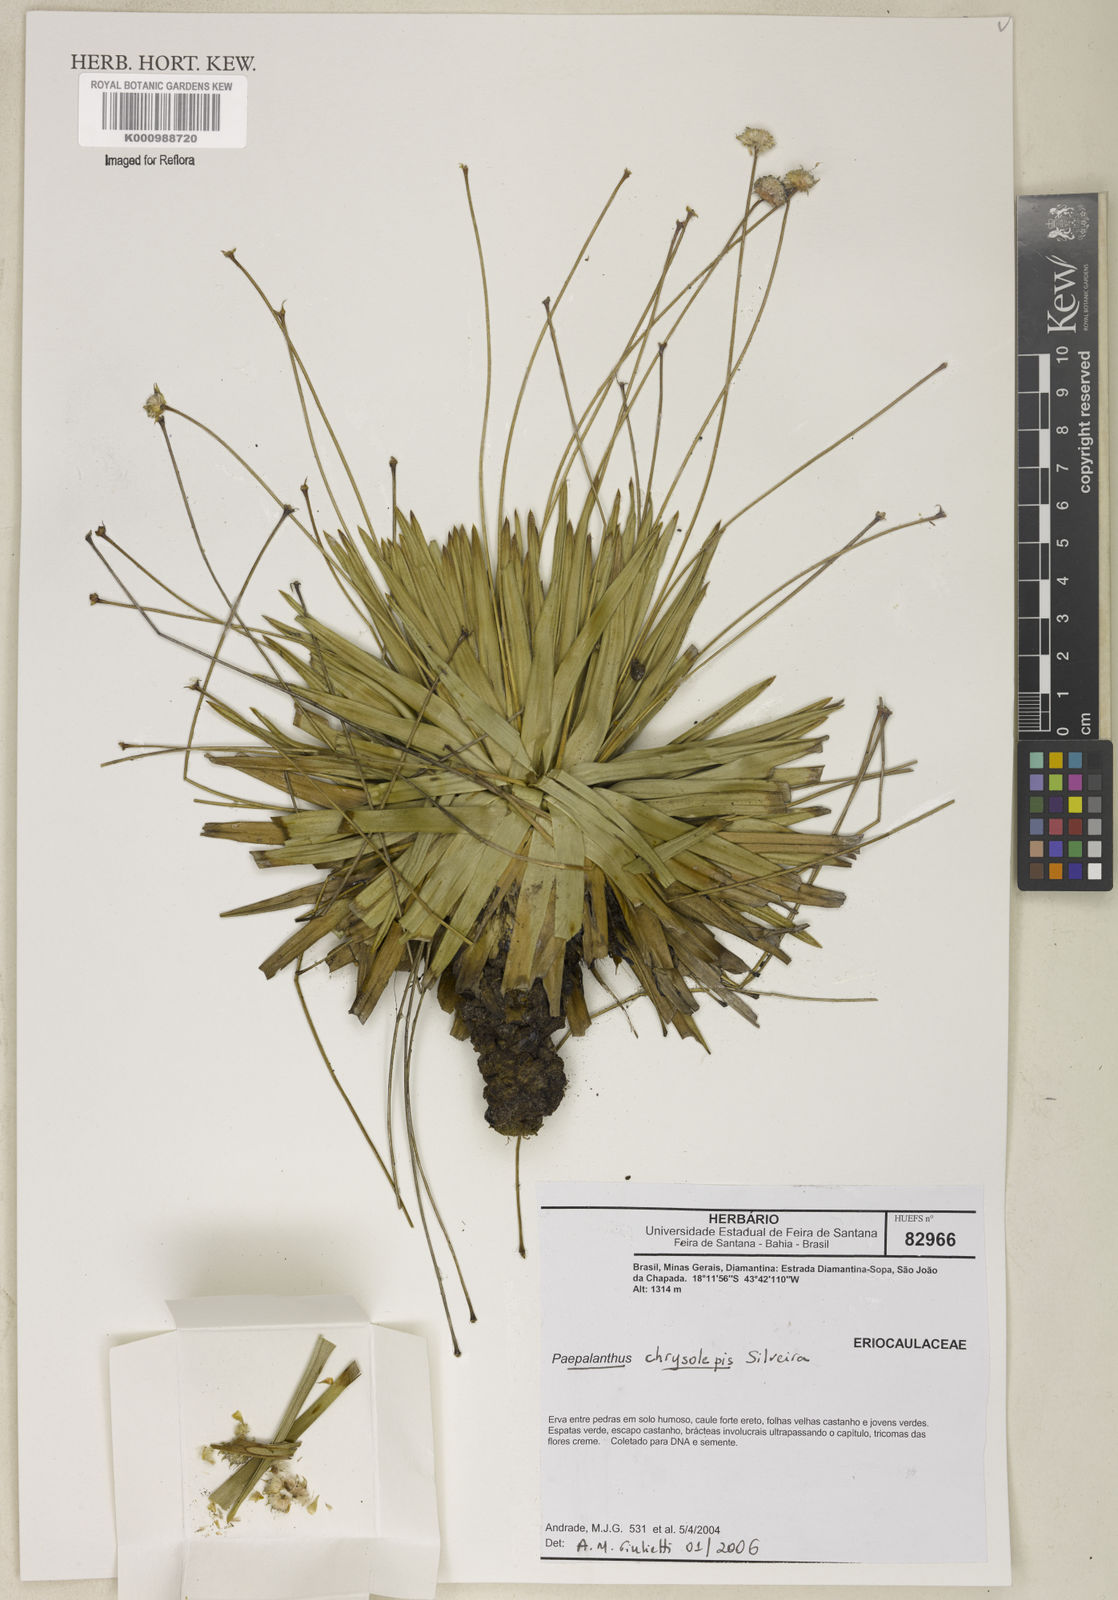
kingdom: Plantae
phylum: Tracheophyta
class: Liliopsida
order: Poales
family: Eriocaulaceae
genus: Paepalanthus
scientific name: Paepalanthus chrysolepis
